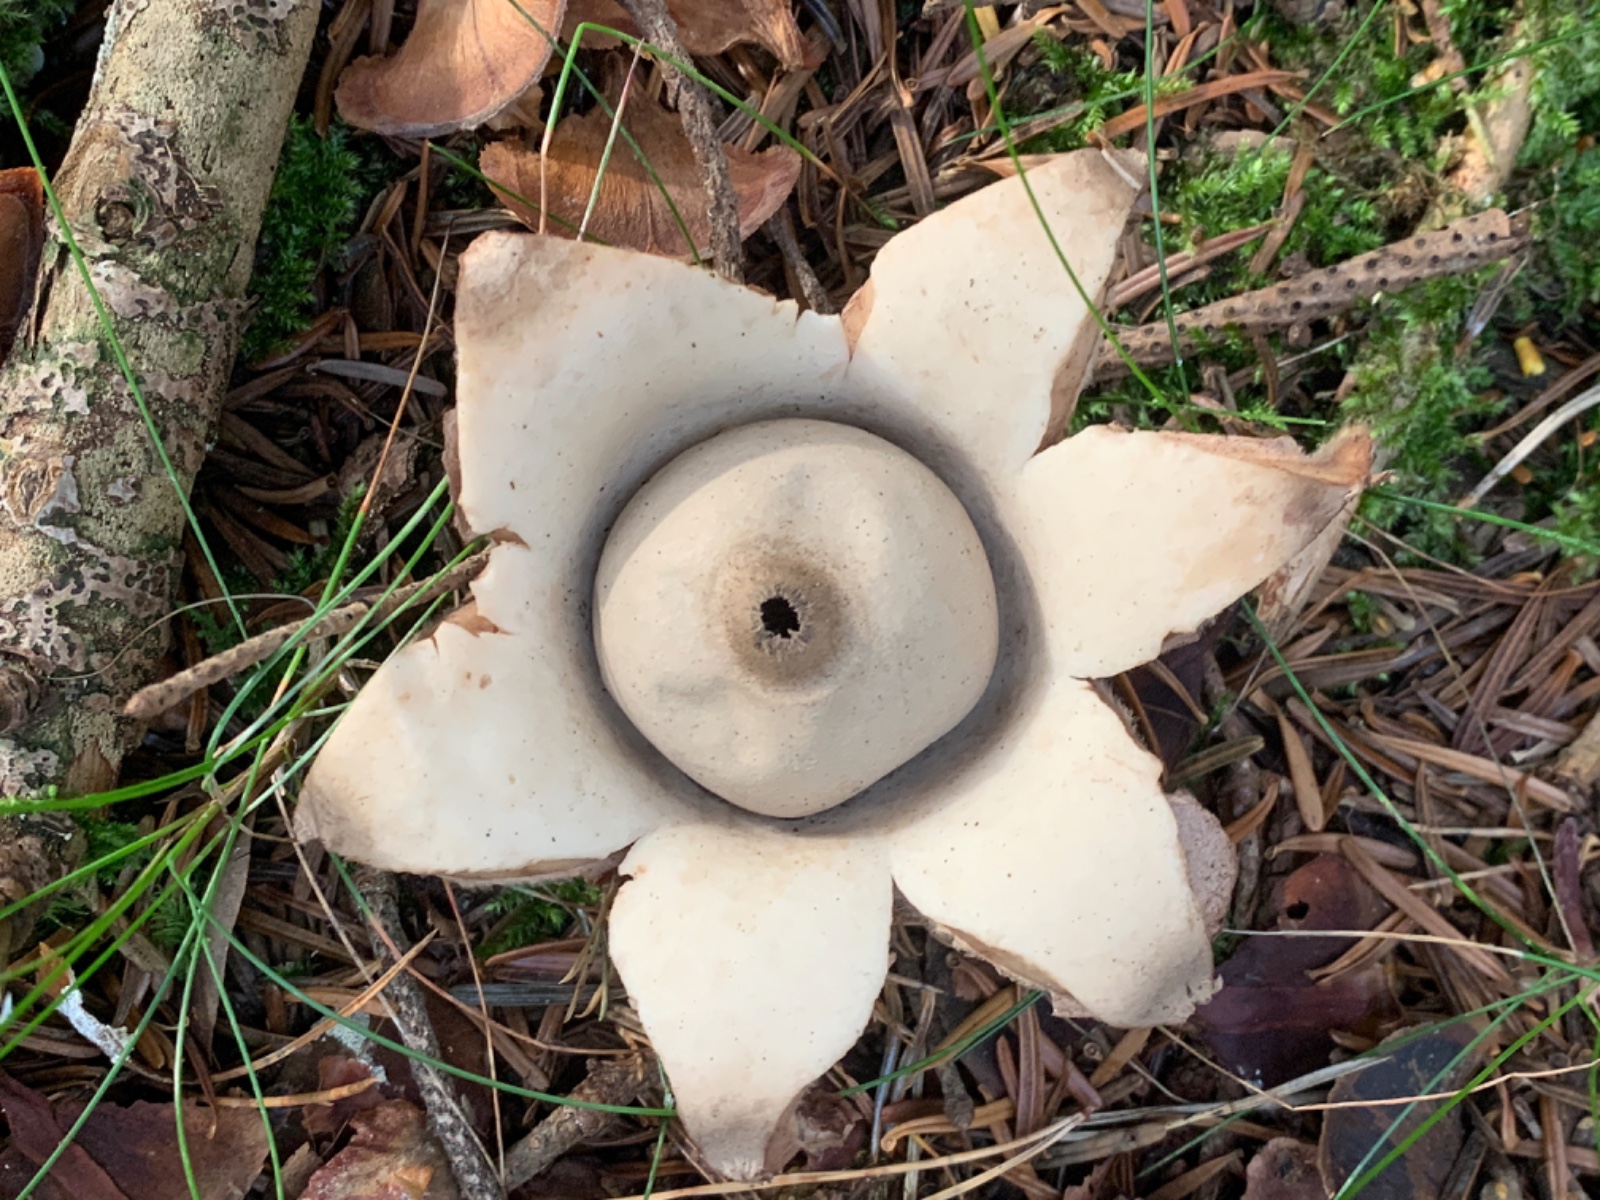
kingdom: Fungi
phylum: Basidiomycota
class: Agaricomycetes
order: Geastrales
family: Geastraceae
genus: Geastrum
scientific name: Geastrum michelianum
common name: kødet stjernebold
